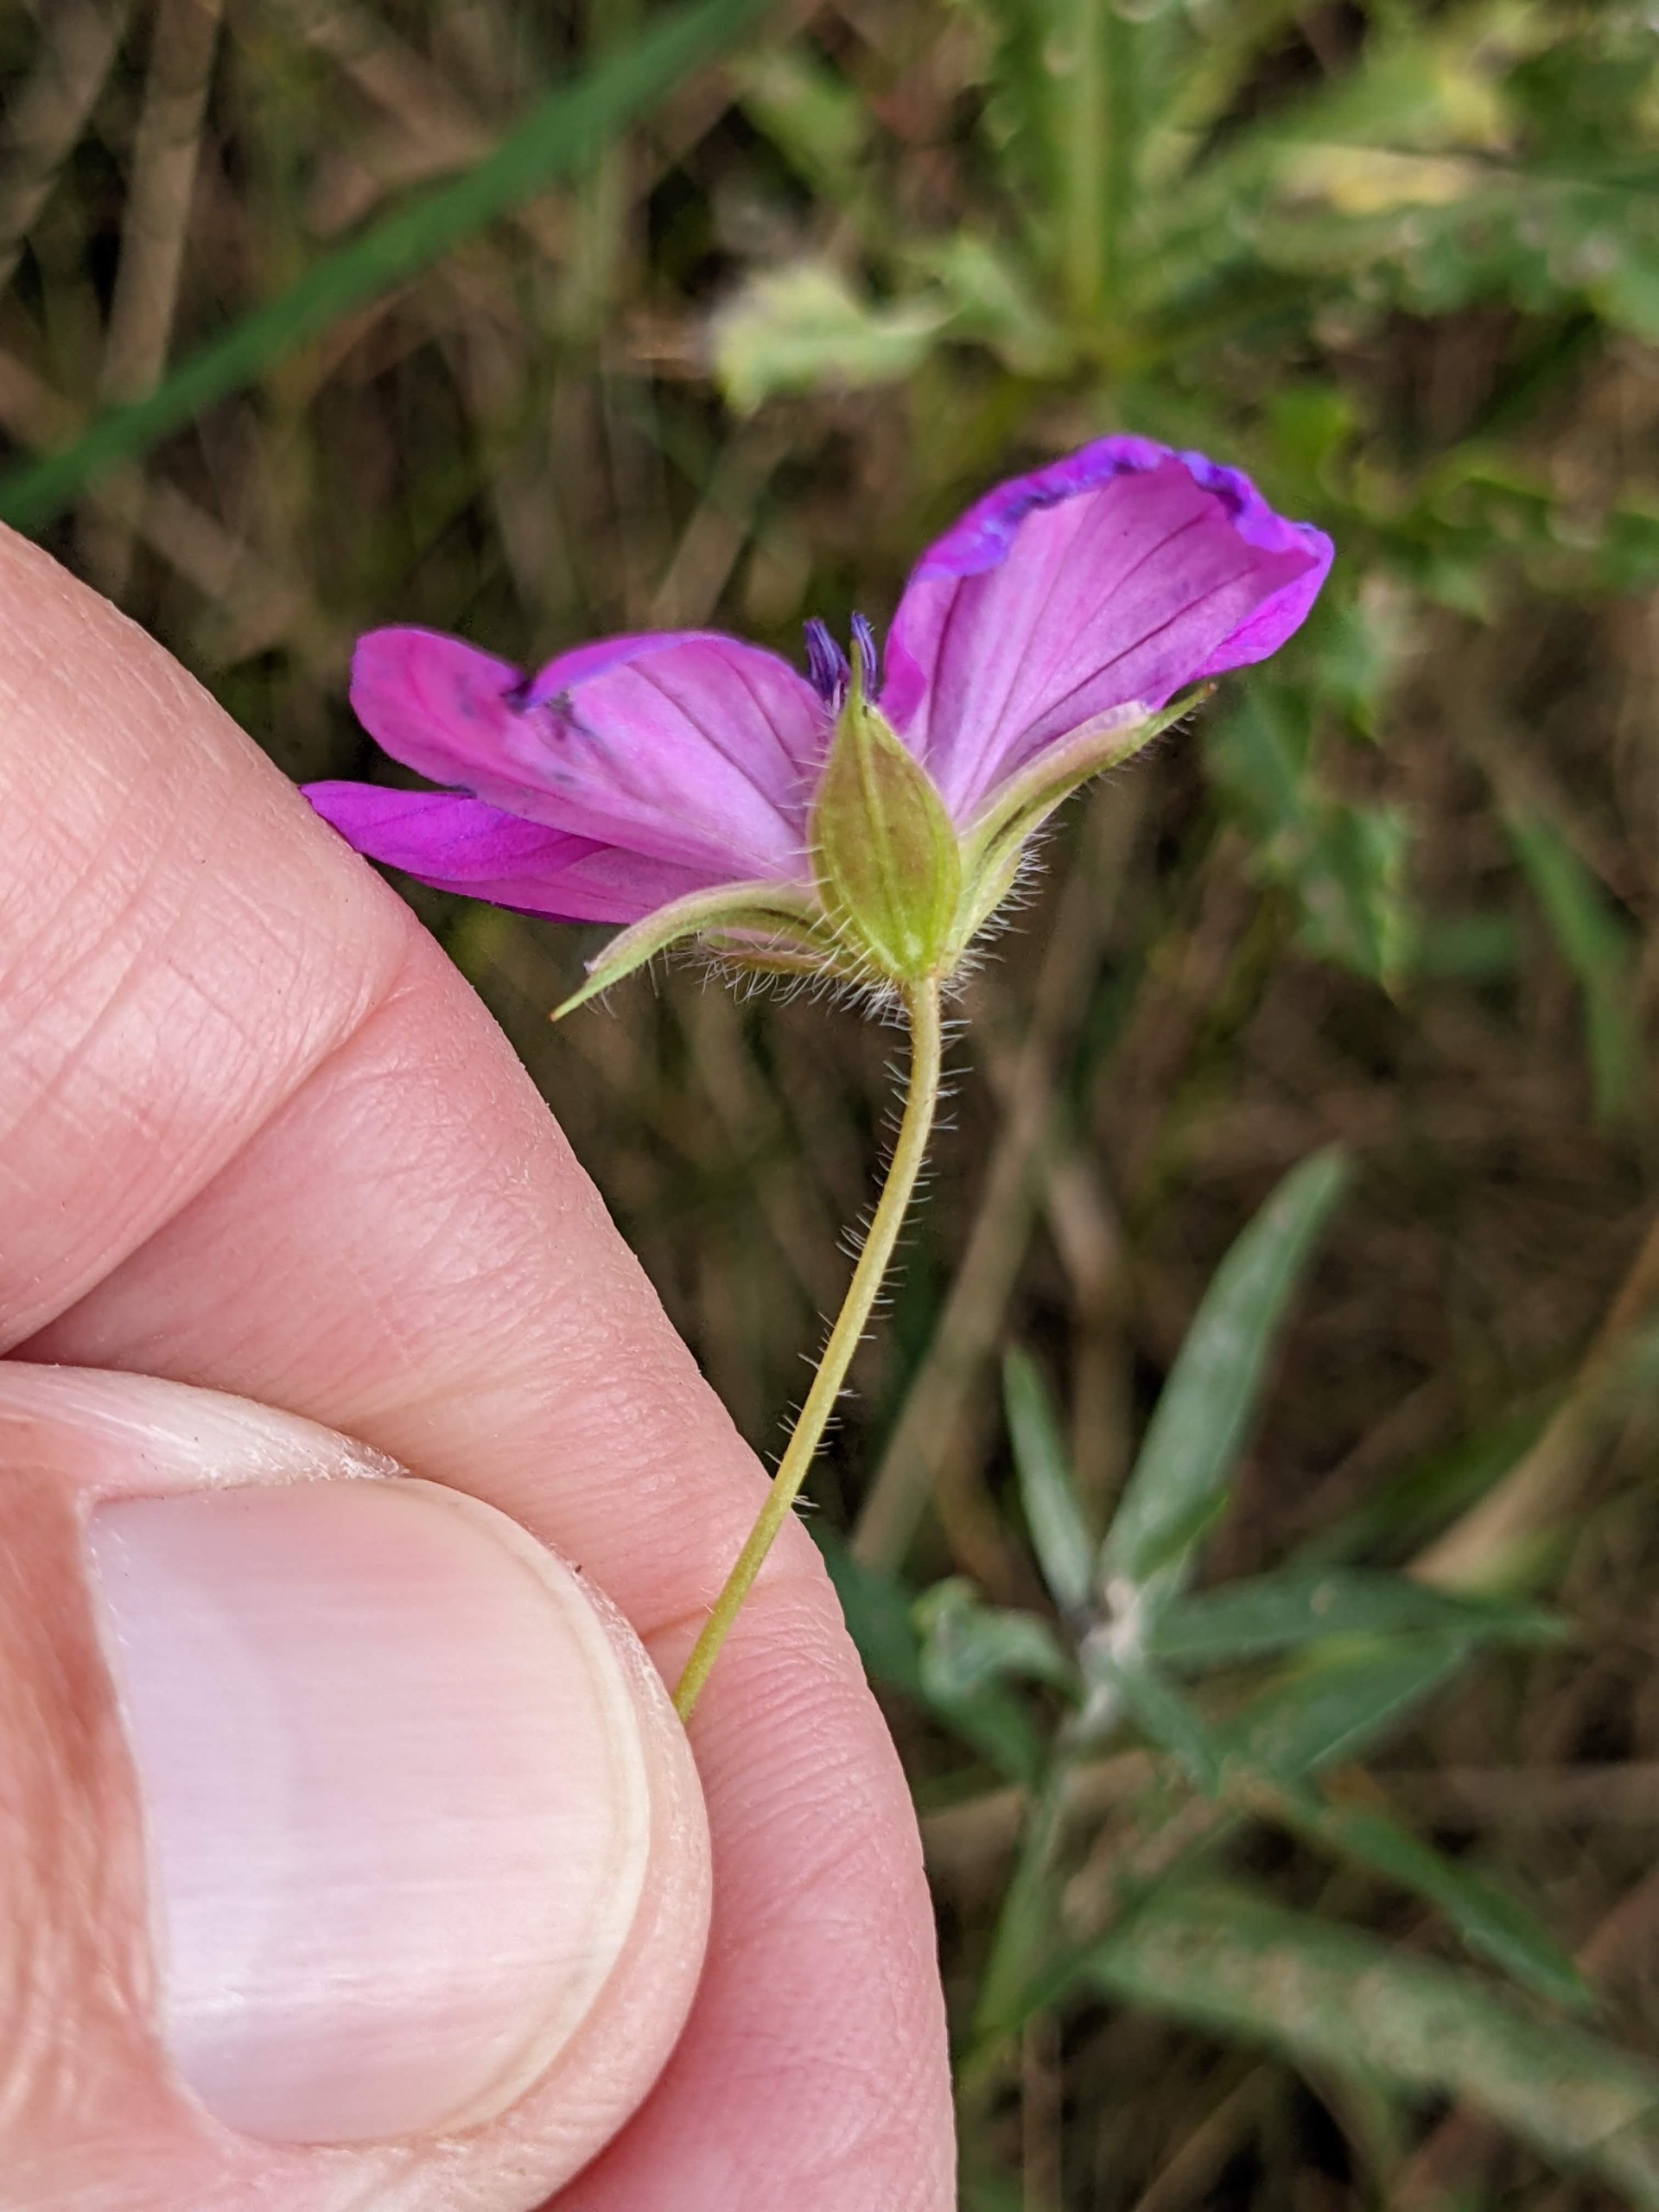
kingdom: Plantae
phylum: Tracheophyta
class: Magnoliopsida
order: Geraniales
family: Geraniaceae
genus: Geranium
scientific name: Geranium sanguineum
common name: Blodrød storkenæb
